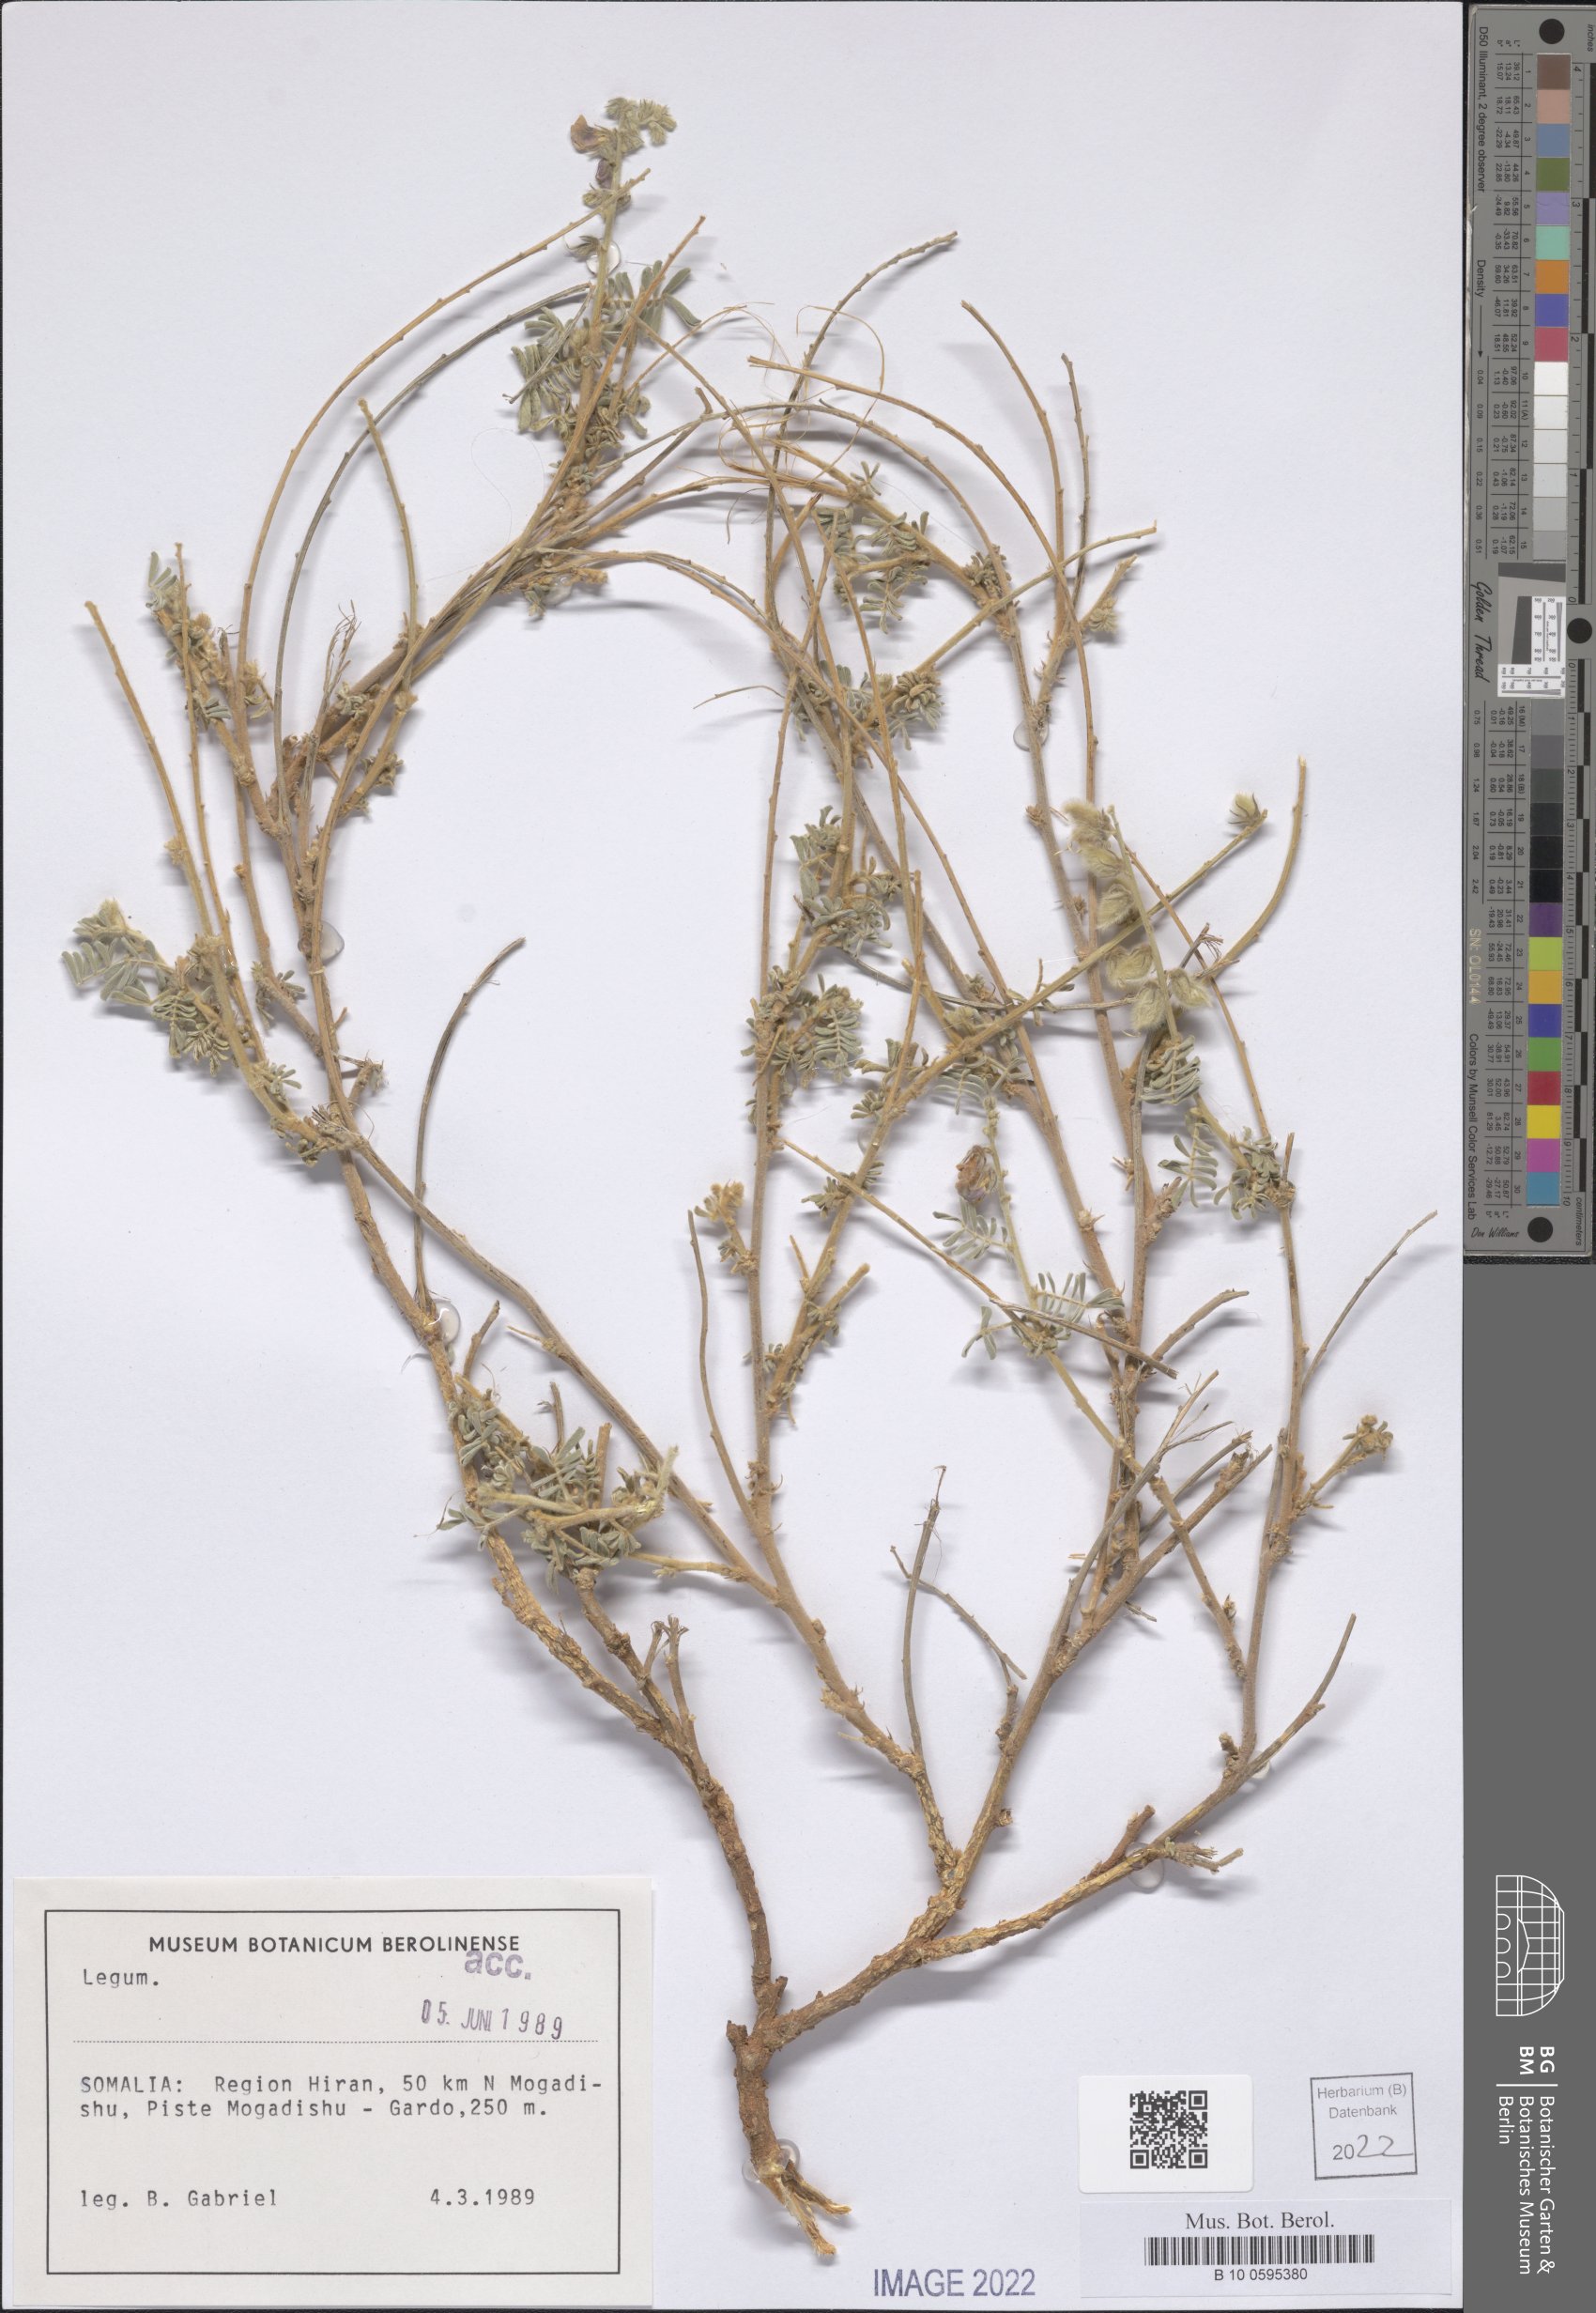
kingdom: Plantae
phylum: Tracheophyta
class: Magnoliopsida
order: Fabales
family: Fabaceae
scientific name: Fabaceae
